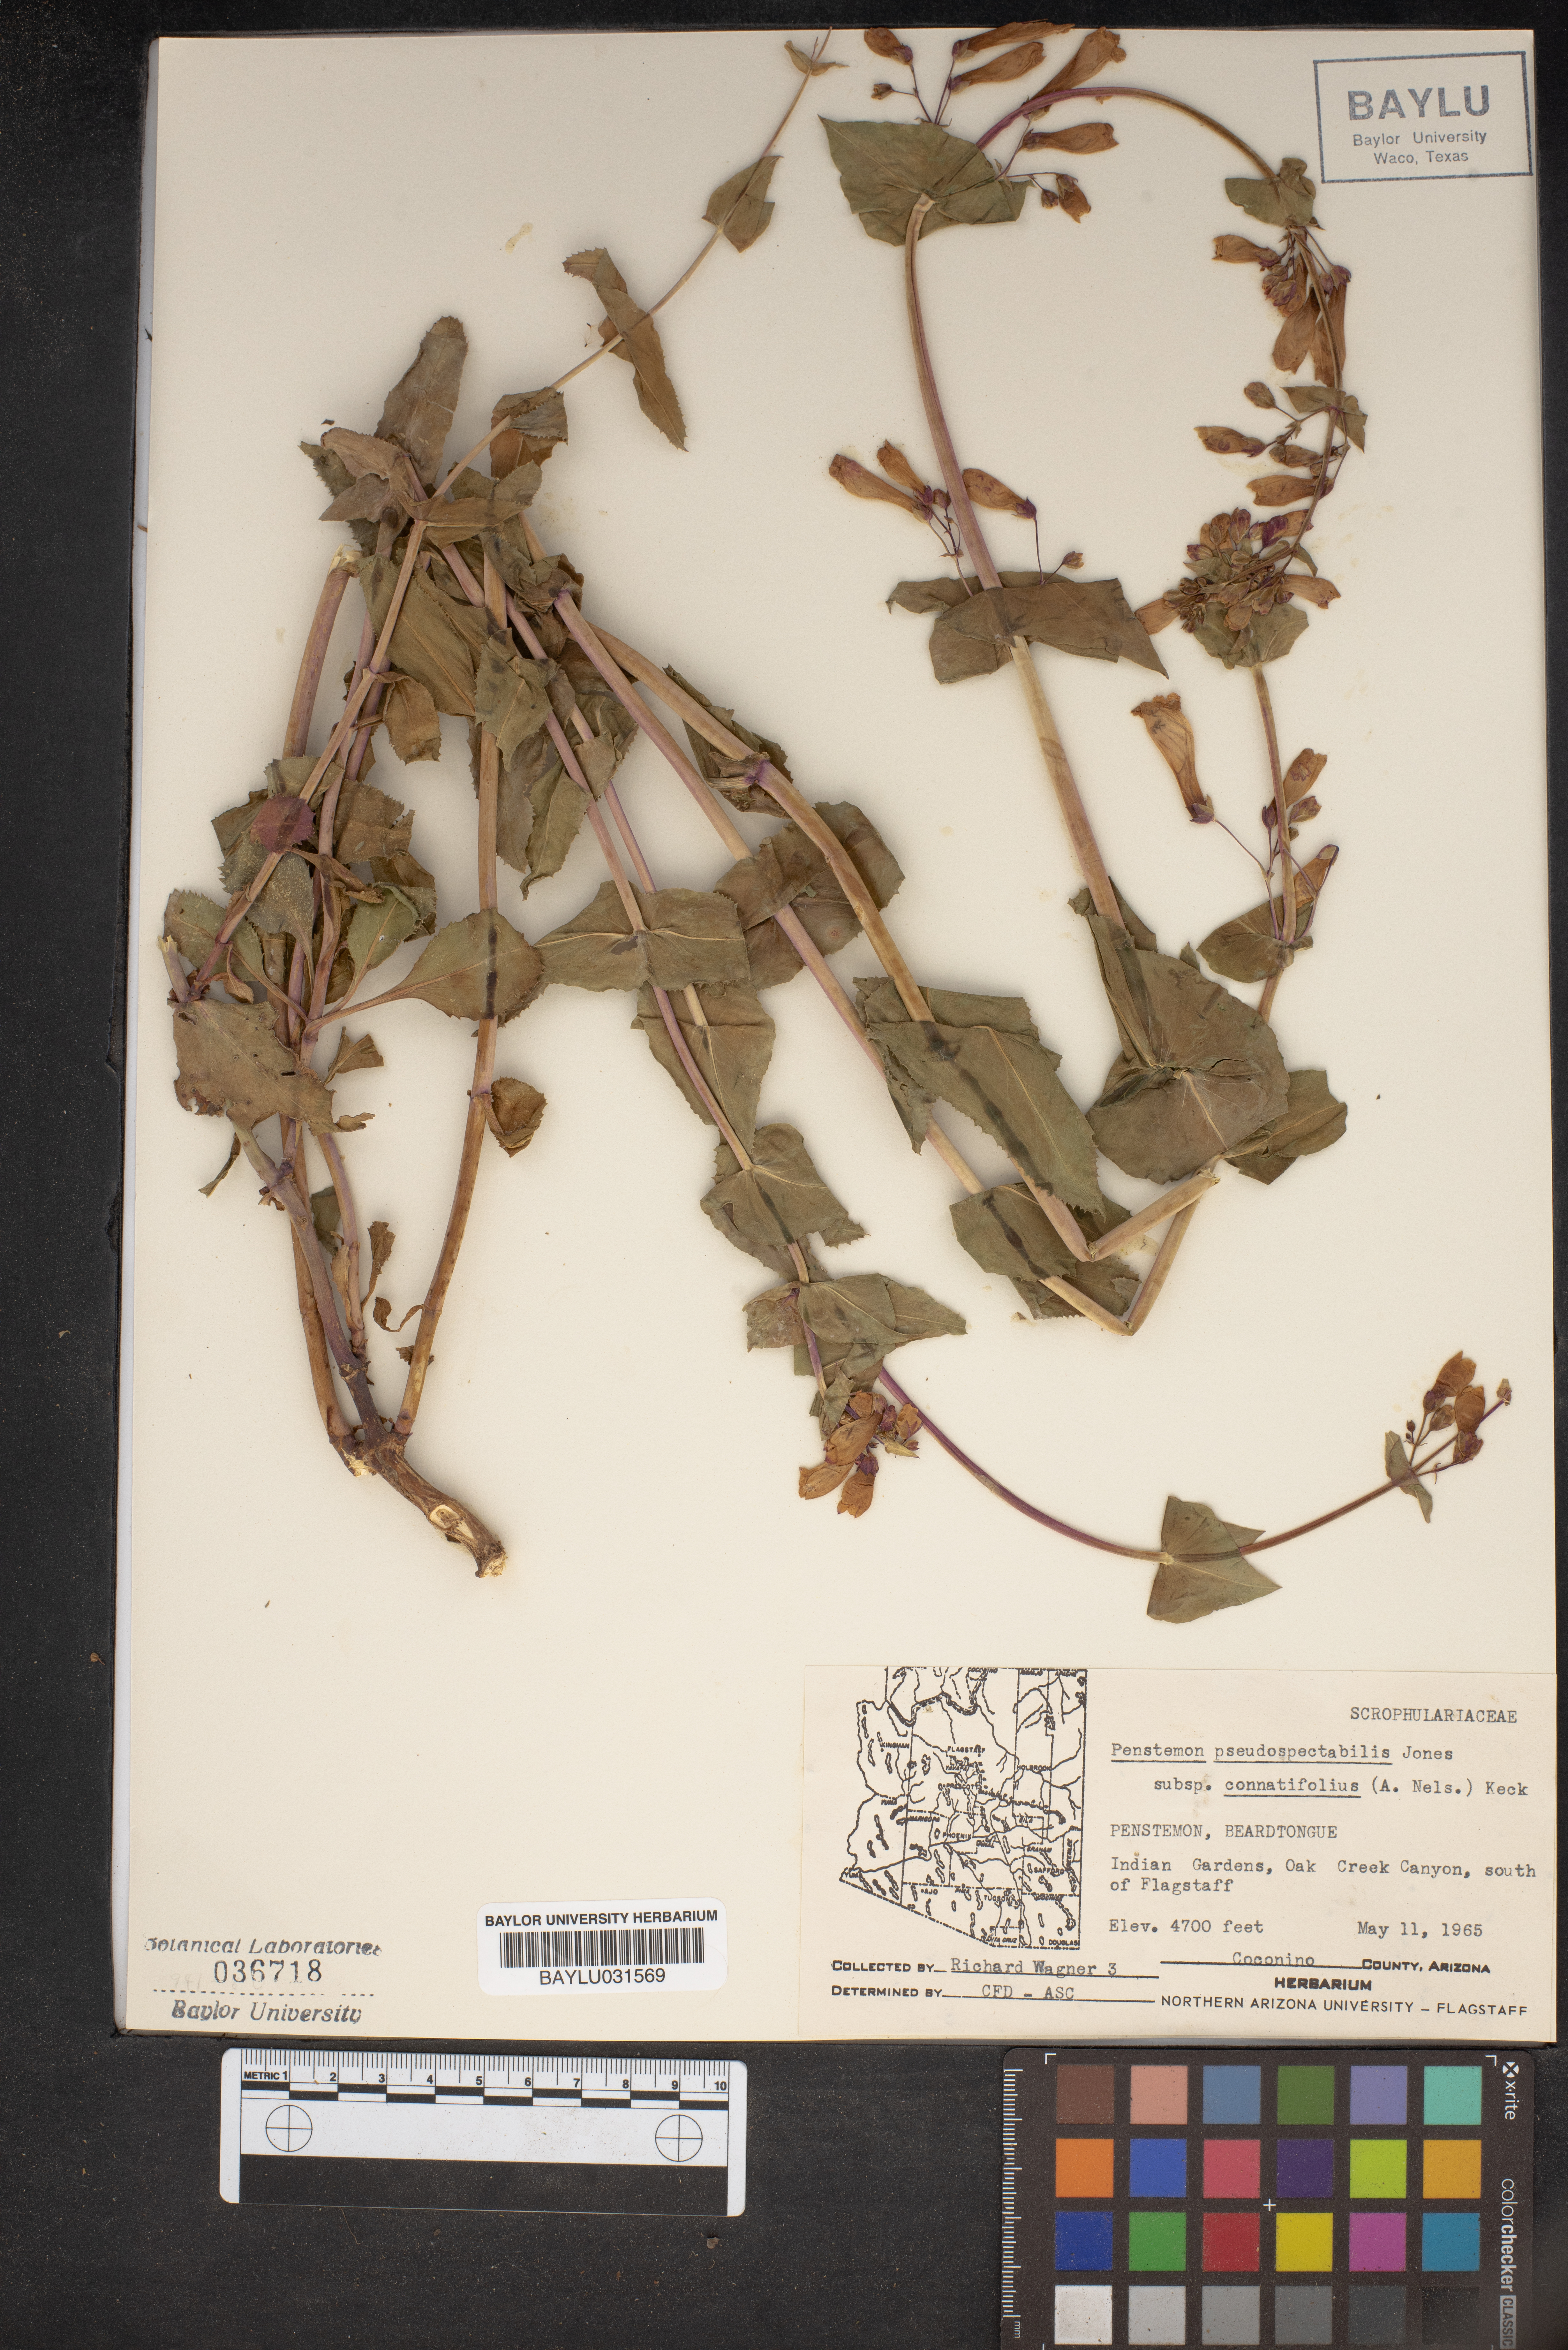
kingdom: Plantae
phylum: Tracheophyta
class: Magnoliopsida
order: Lamiales
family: Plantaginaceae
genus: Penstemon
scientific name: Penstemon pseudospectabilis
